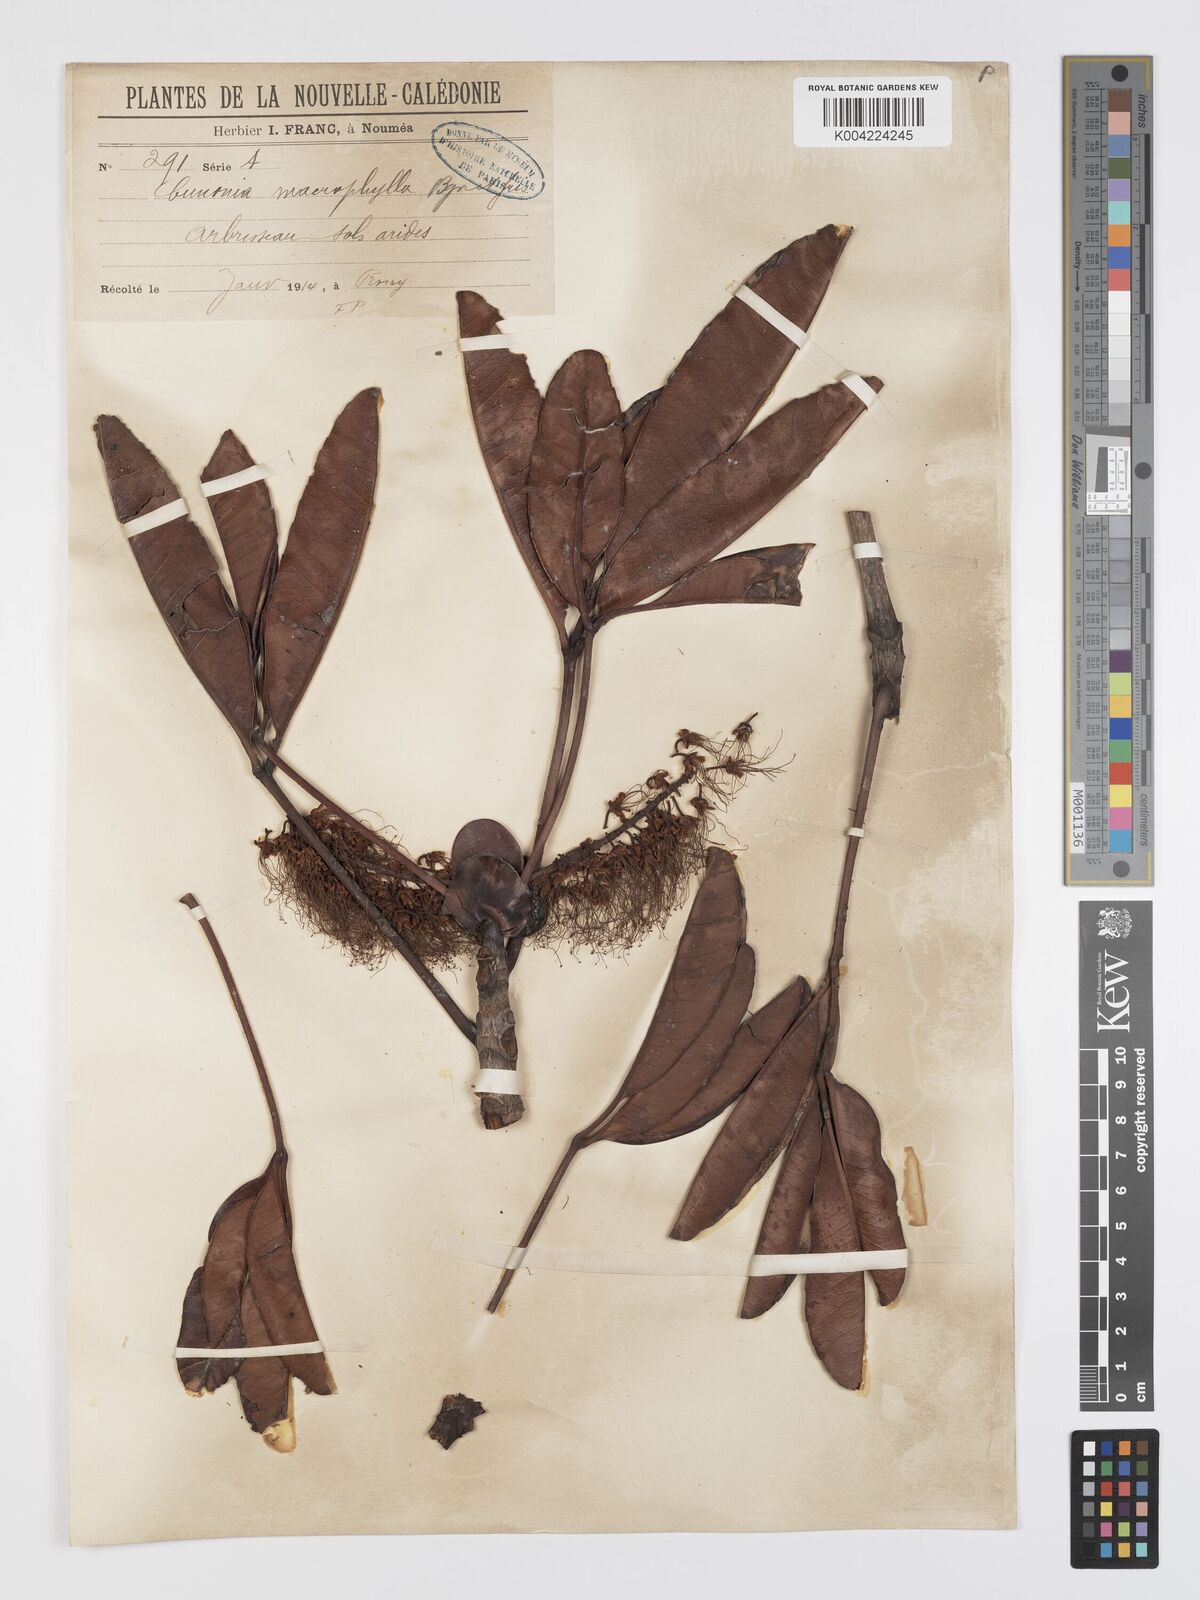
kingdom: Plantae
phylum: Tracheophyta
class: Magnoliopsida
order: Oxalidales
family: Cunoniaceae
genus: Cunonia
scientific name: Cunonia macrophylla
